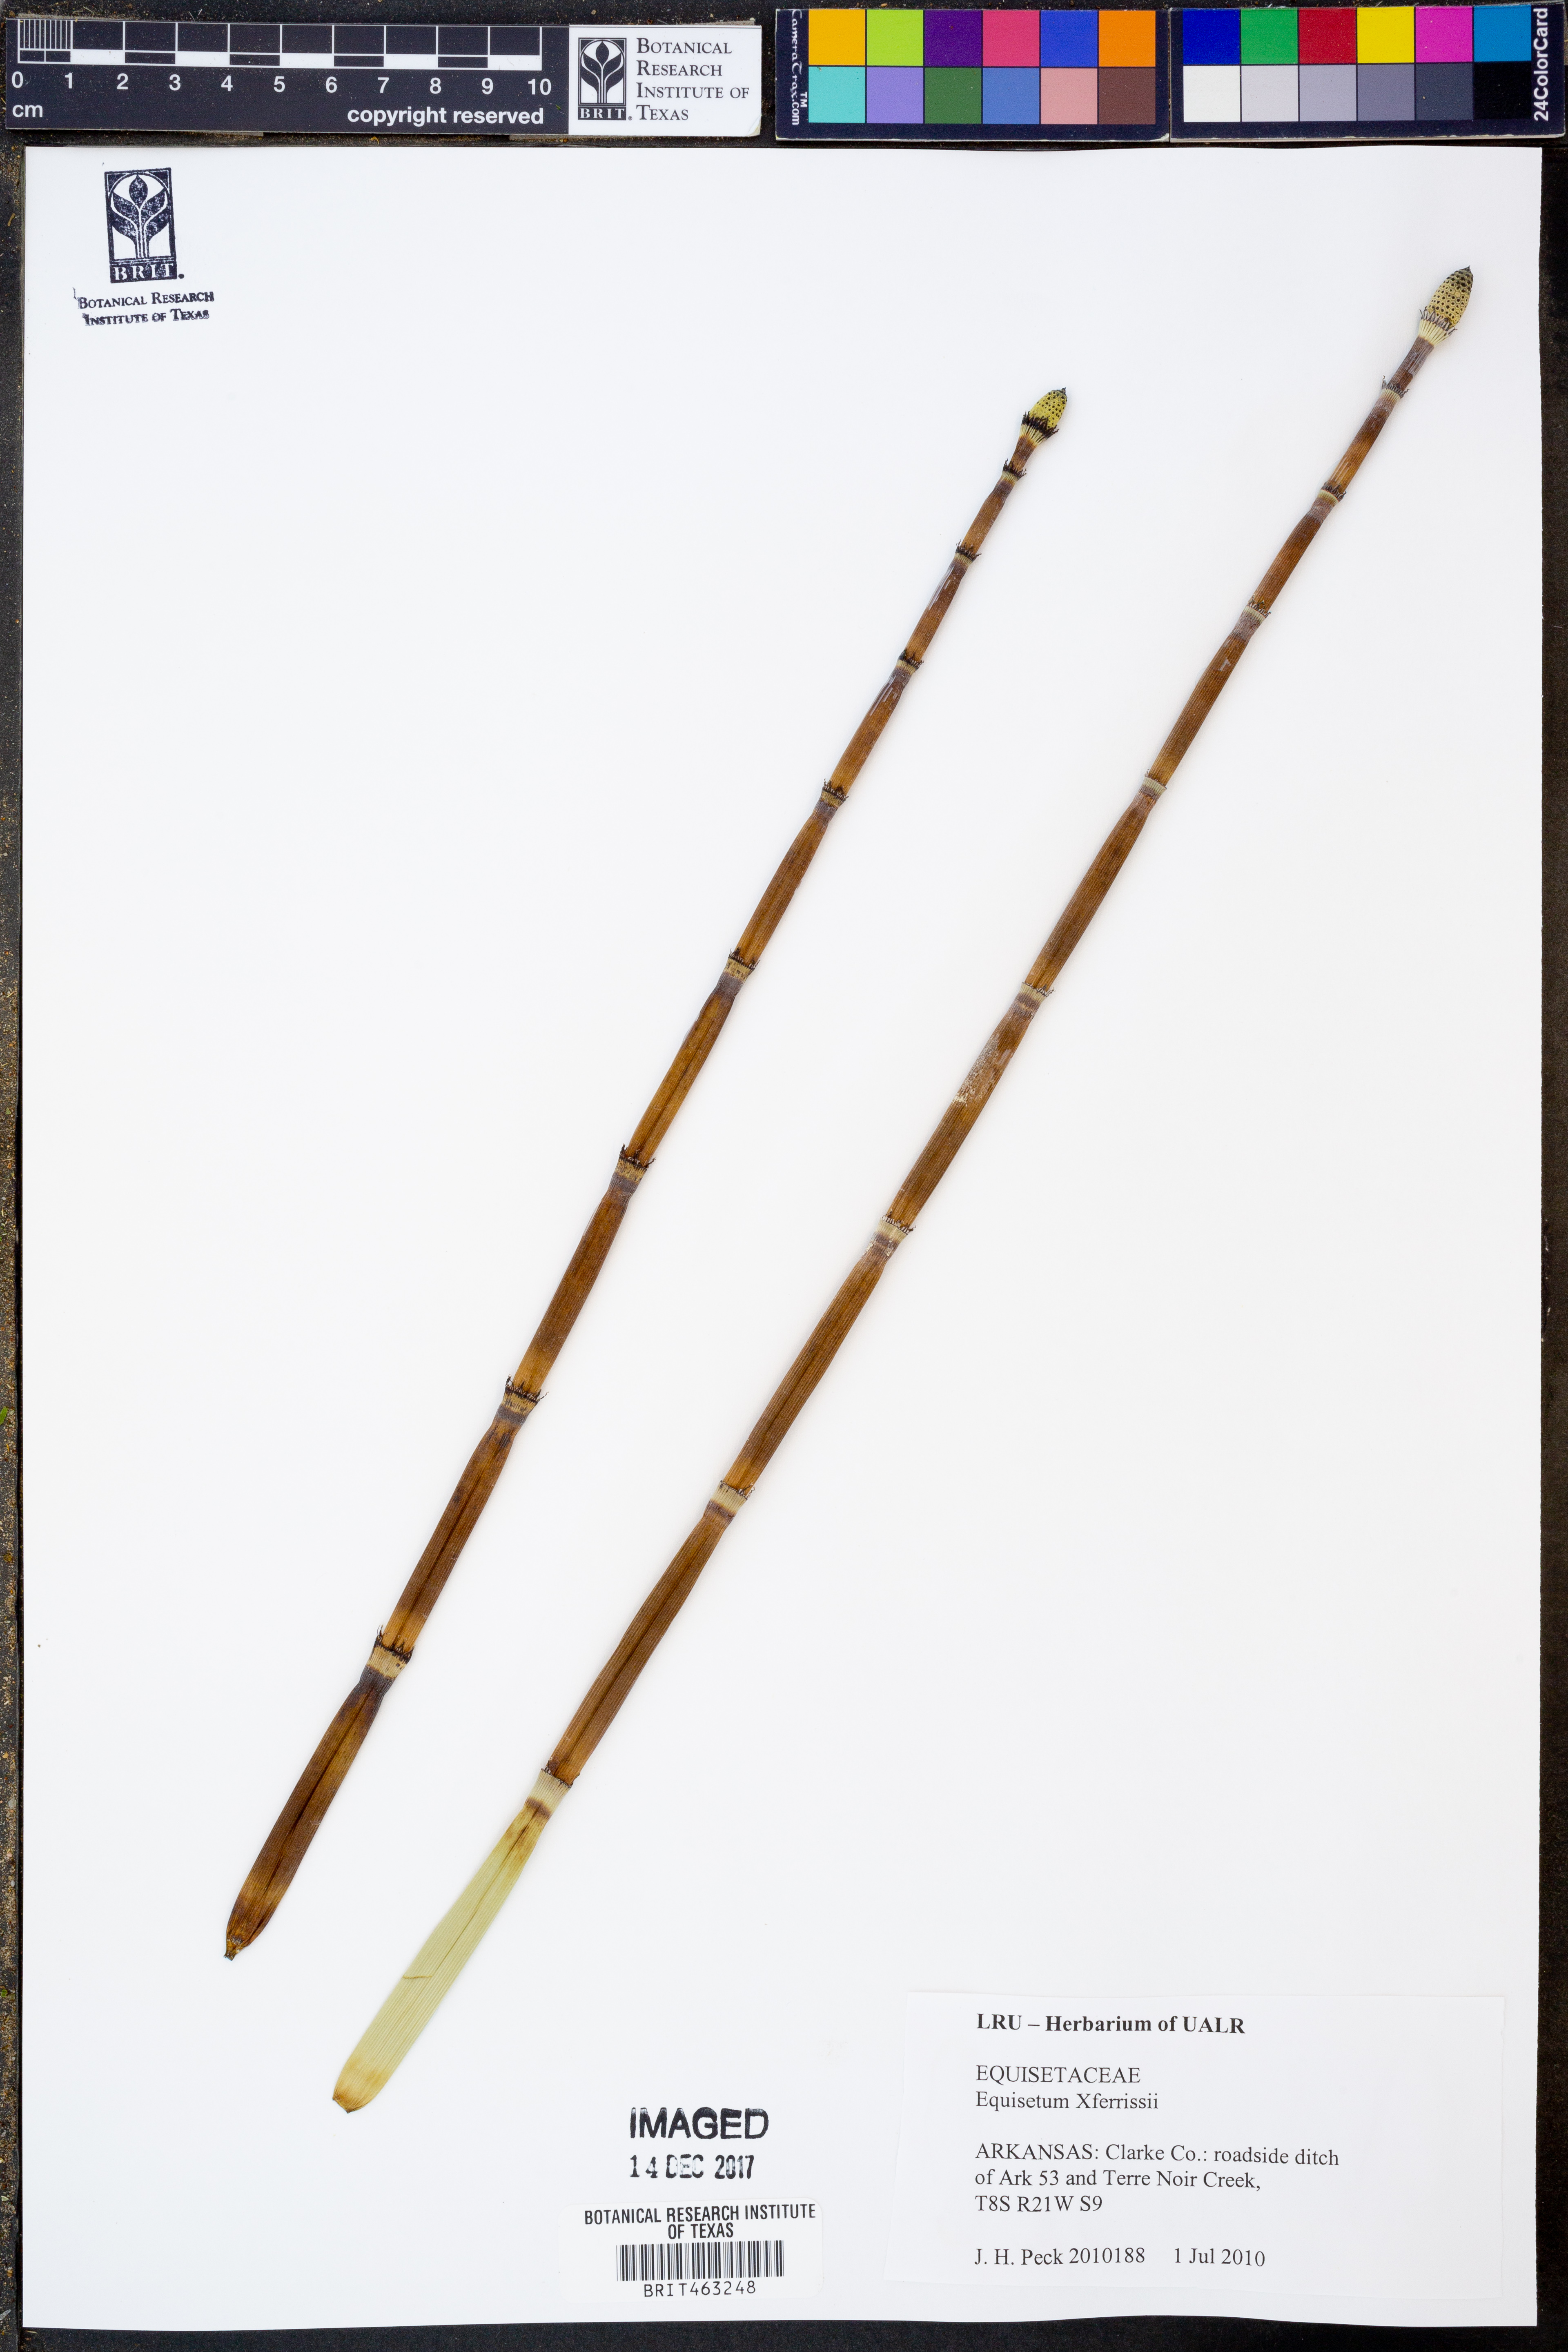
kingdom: Plantae
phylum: Tracheophyta
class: Polypodiopsida
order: Equisetales
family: Equisetaceae
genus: Equisetum
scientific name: Equisetum ferrissii
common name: Ferriss' horsetail
